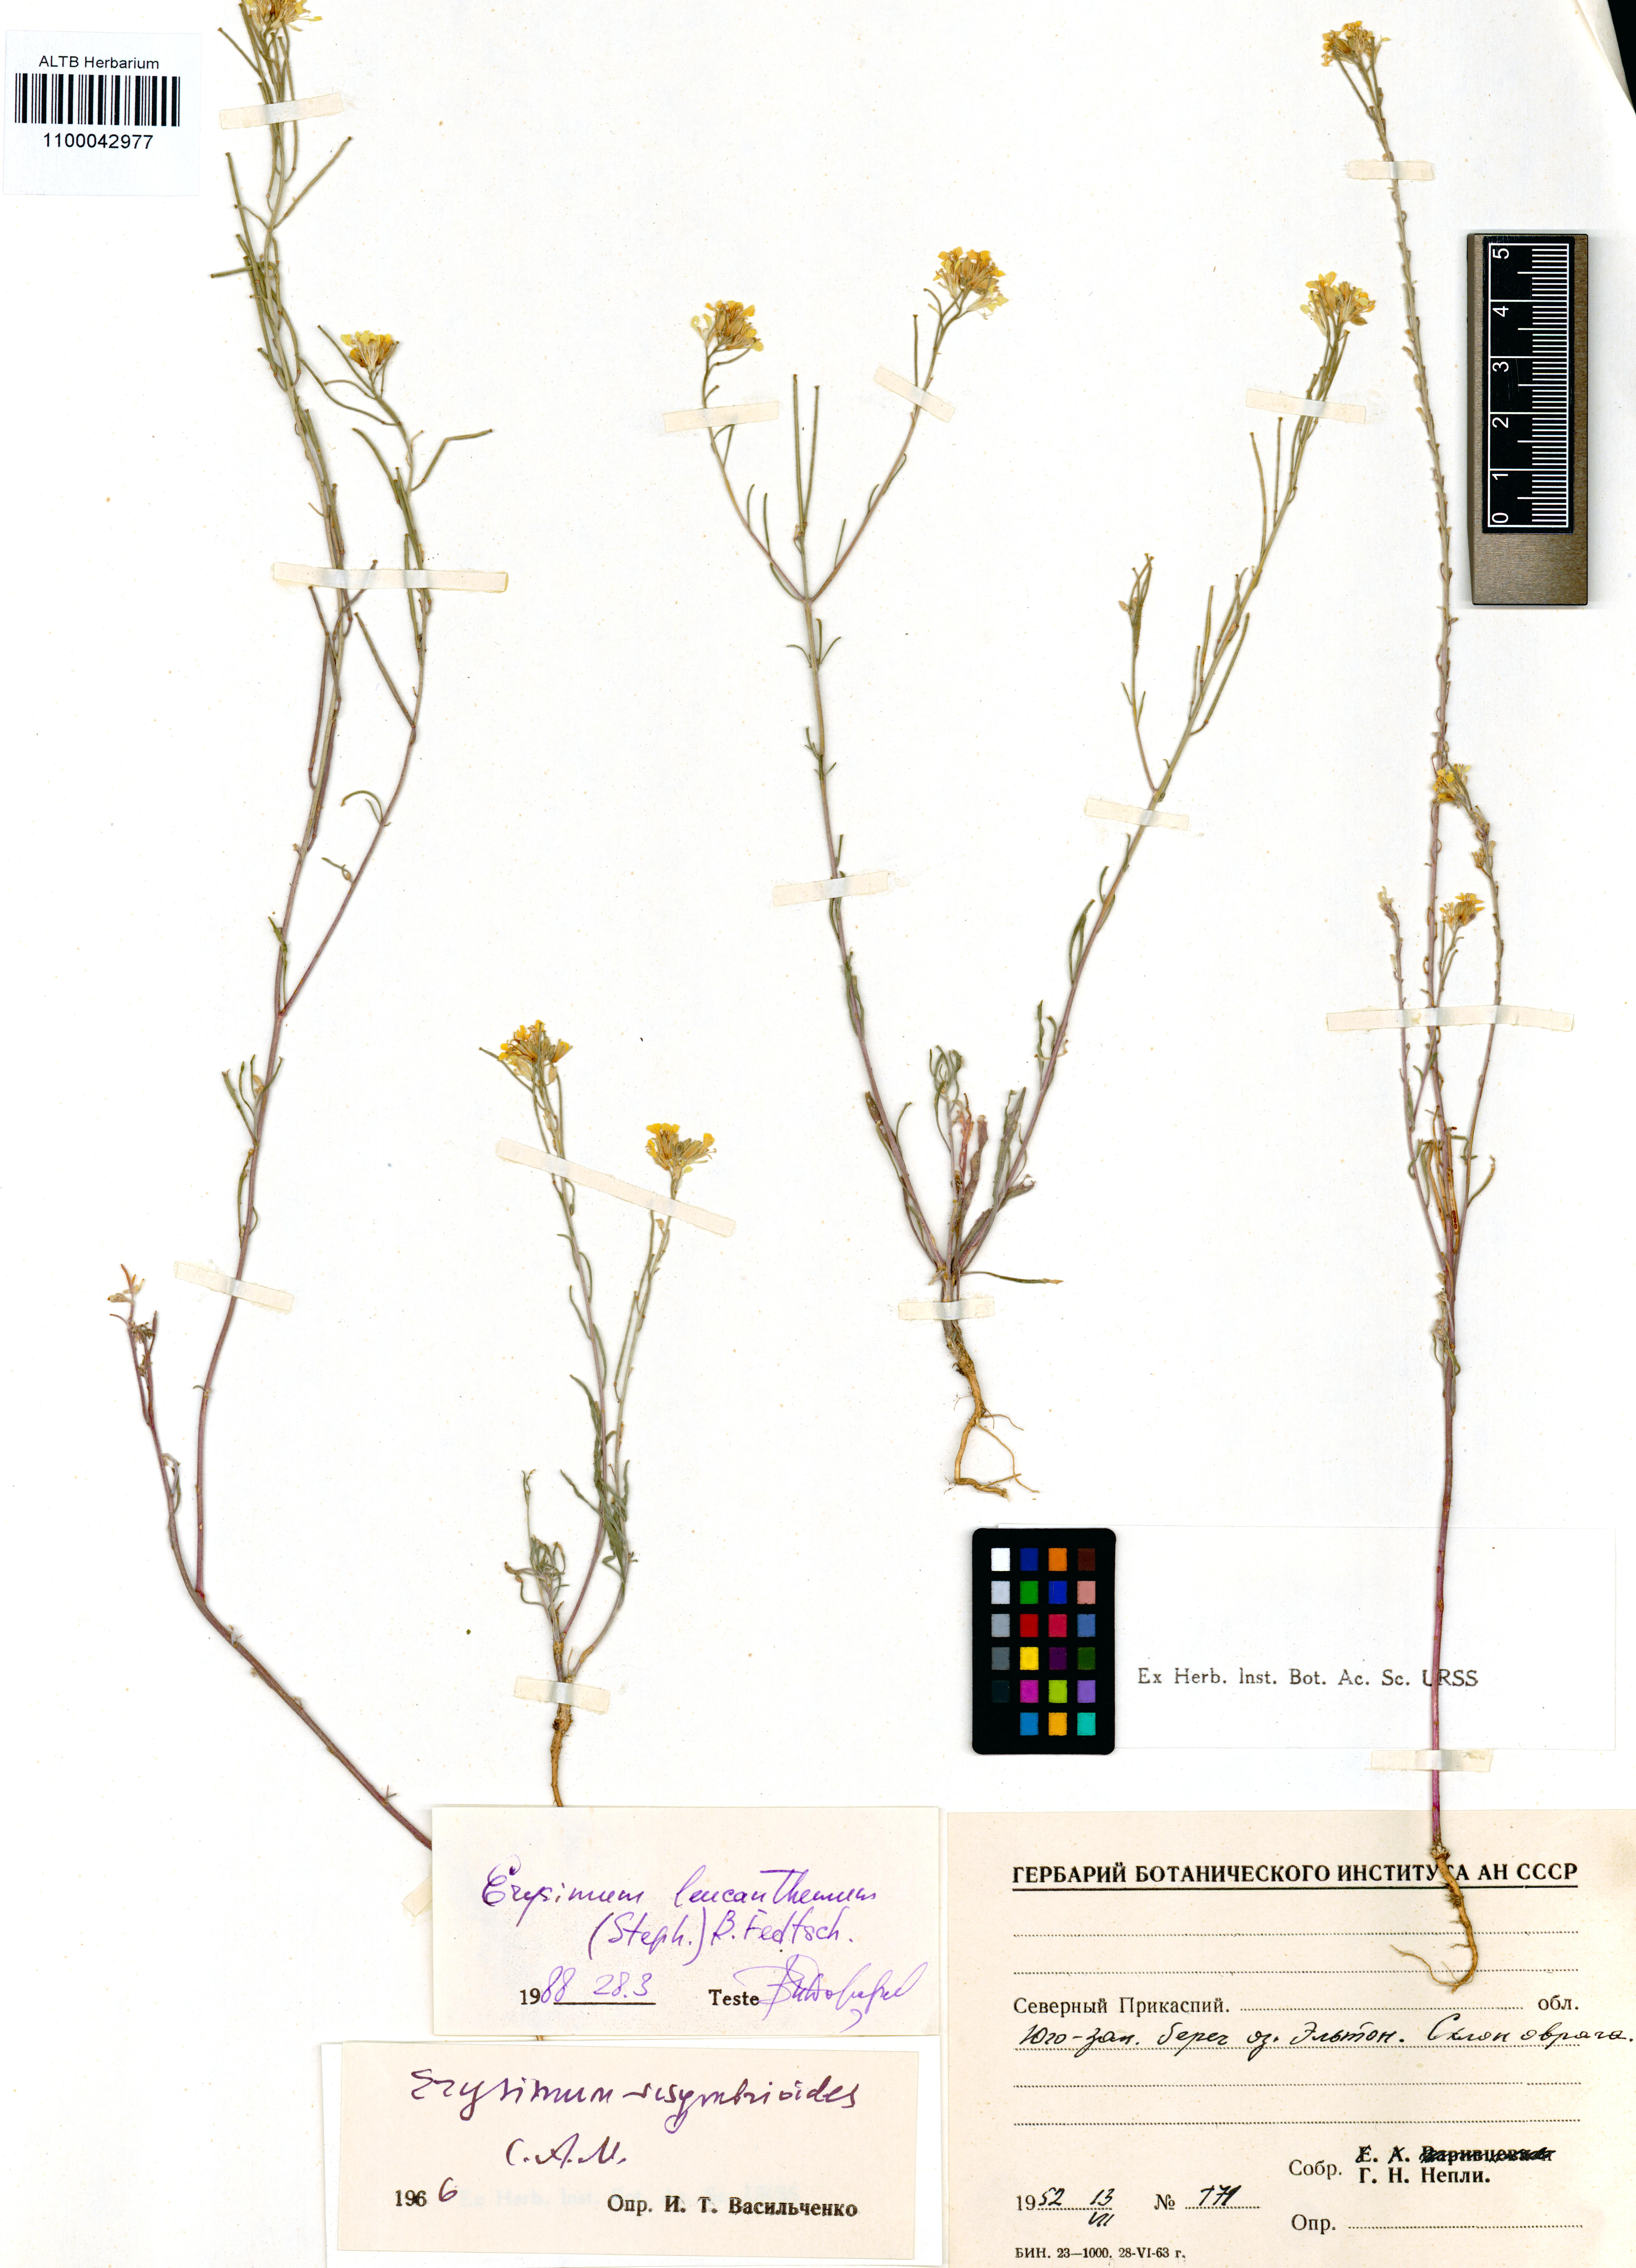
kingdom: Plantae
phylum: Tracheophyta
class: Magnoliopsida
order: Brassicales
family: Brassicaceae
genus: Erysimum
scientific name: Erysimum leucanthemum
